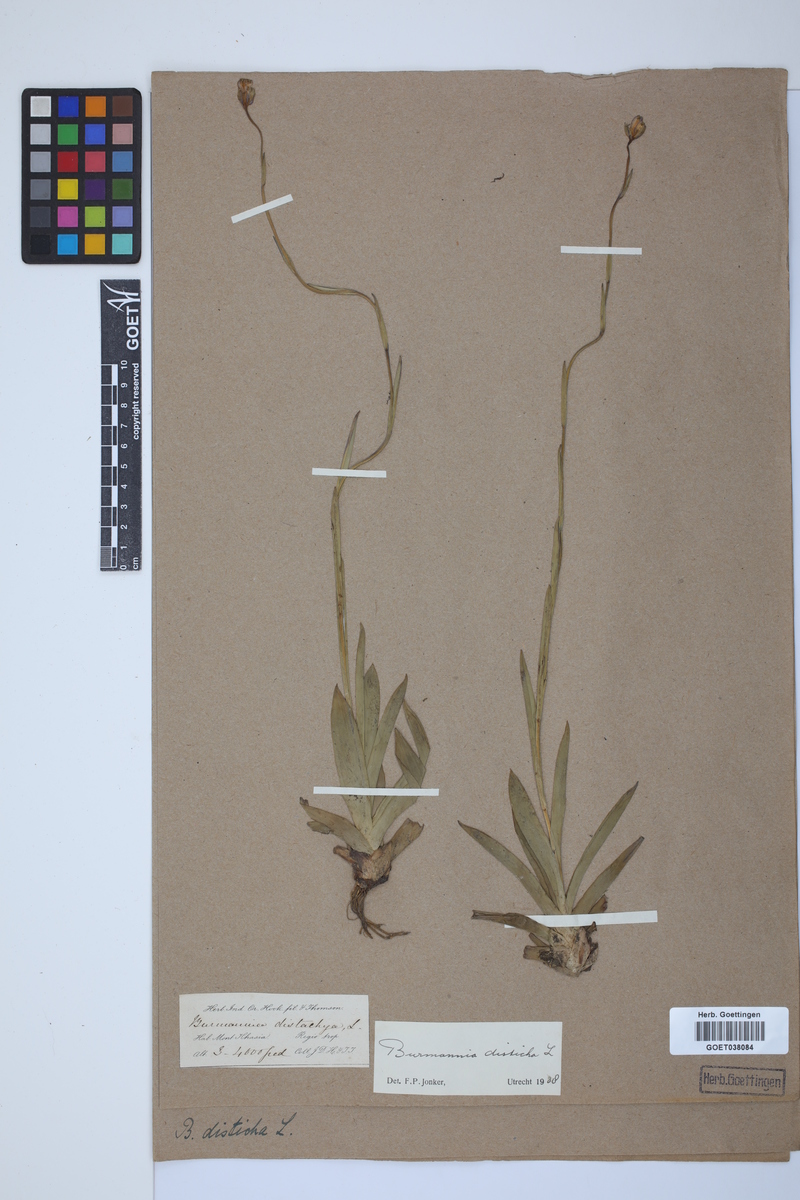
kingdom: Plantae
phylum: Tracheophyta
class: Liliopsida
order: Dioscoreales
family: Burmanniaceae
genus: Burmannia
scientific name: Burmannia disticha
